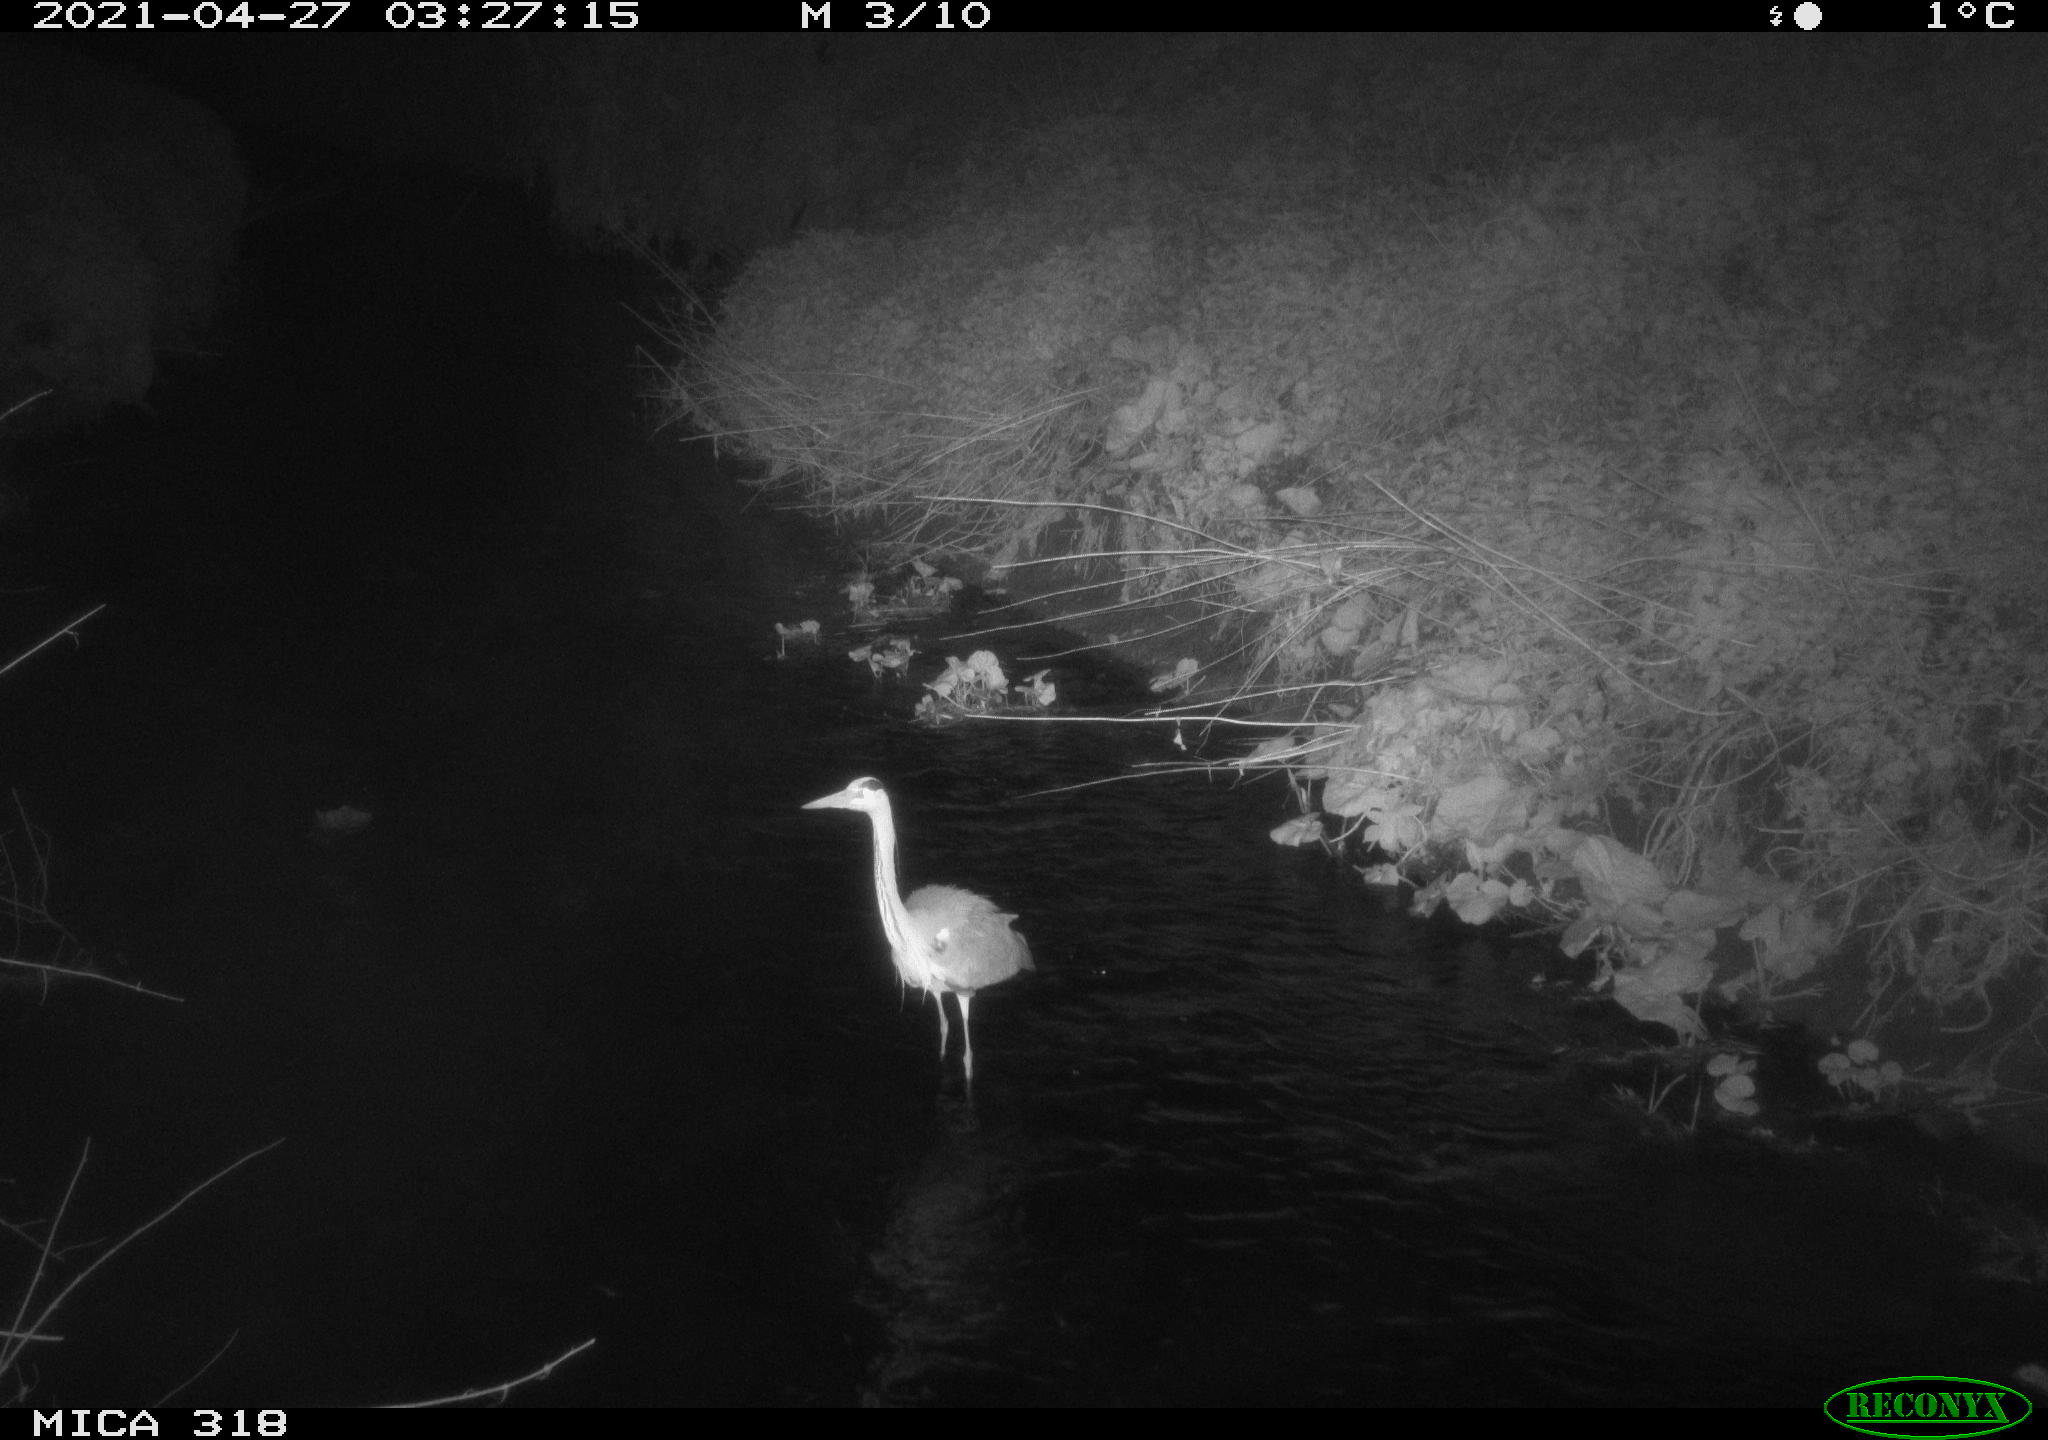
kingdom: Animalia
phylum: Chordata
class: Aves
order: Pelecaniformes
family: Ardeidae
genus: Ardea
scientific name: Ardea
